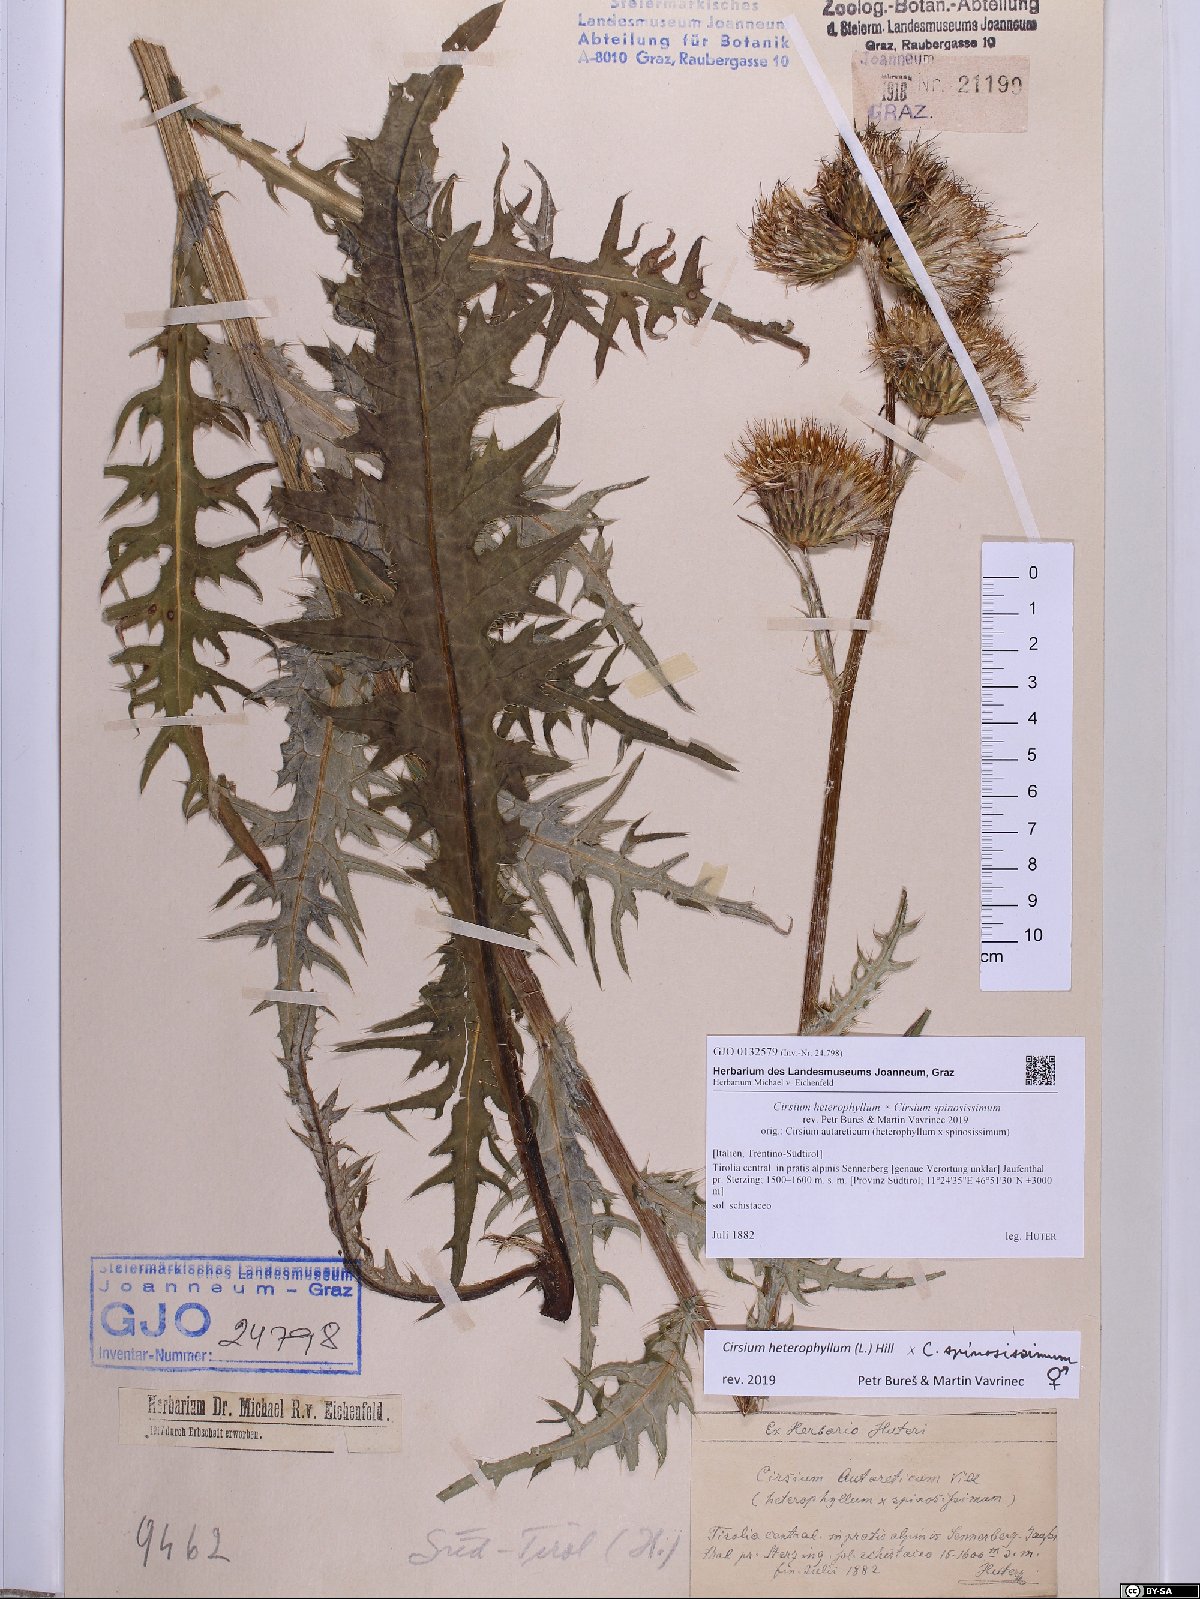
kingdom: Plantae
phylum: Tracheophyta
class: Magnoliopsida
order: Asterales
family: Asteraceae
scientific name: Asteraceae
